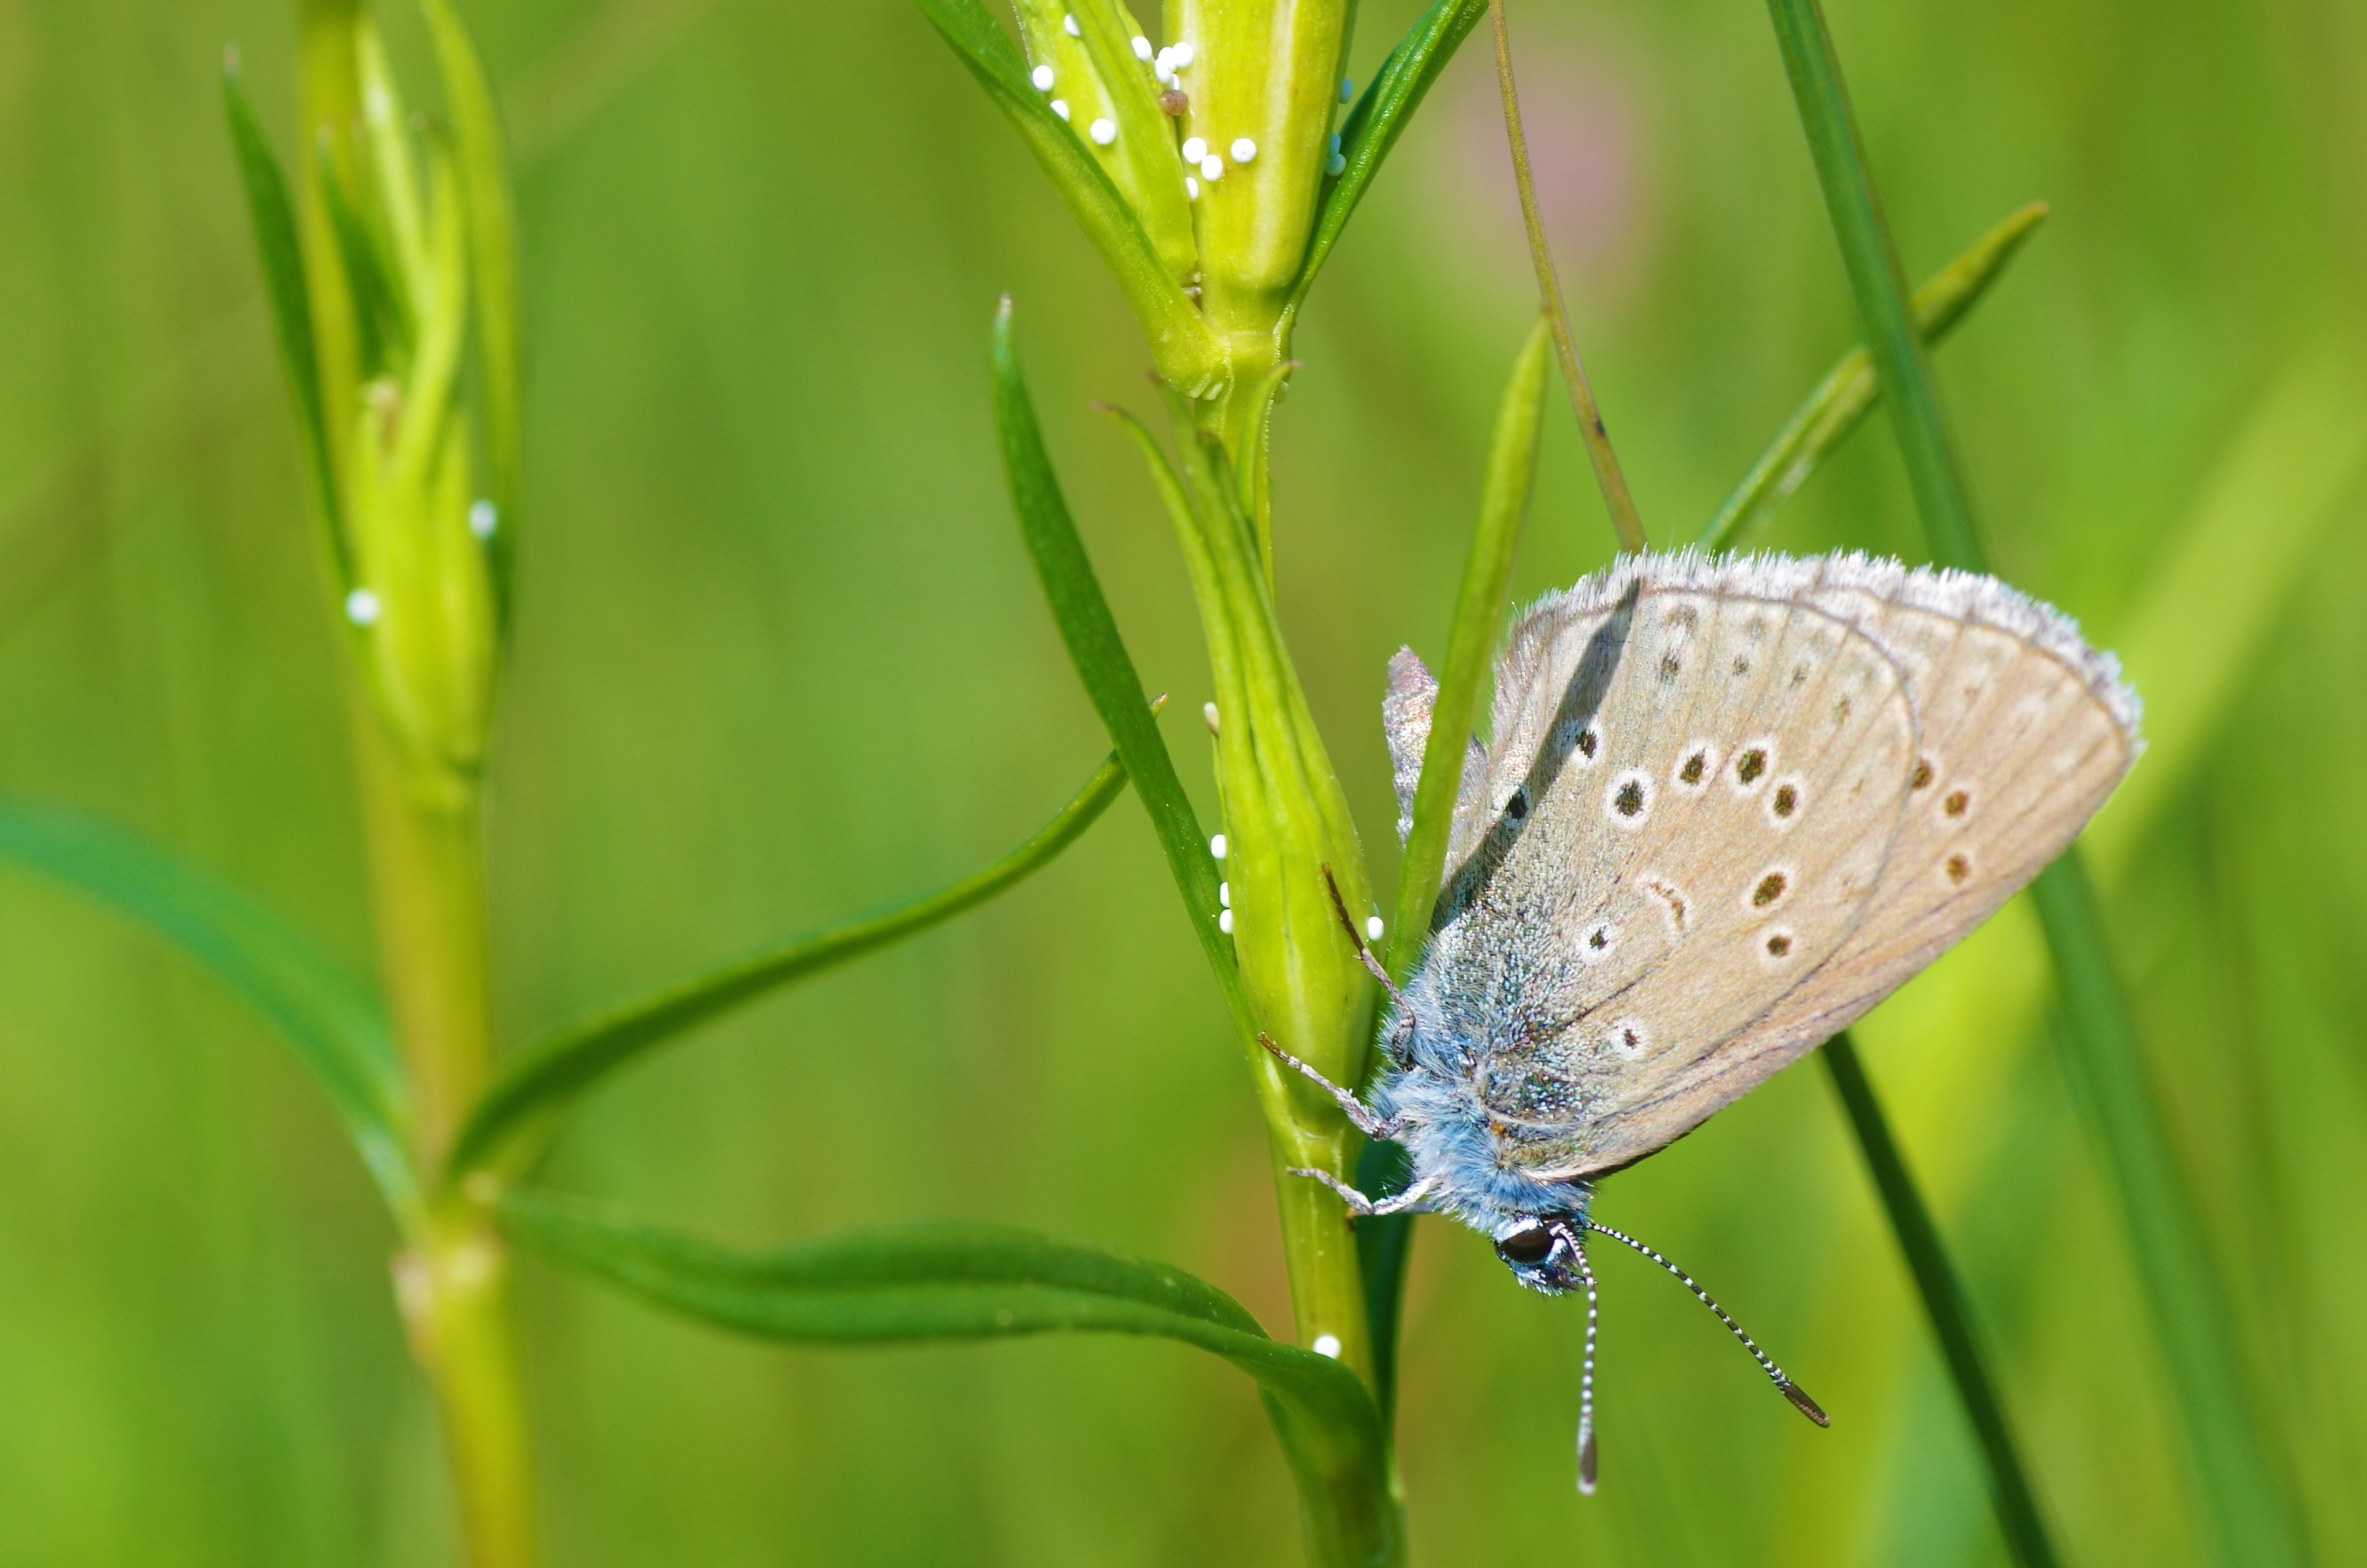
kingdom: Animalia
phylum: Arthropoda
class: Insecta
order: Lepidoptera
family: Lycaenidae
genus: Maculinea
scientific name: Maculinea alcon
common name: Ensianblåfugl
